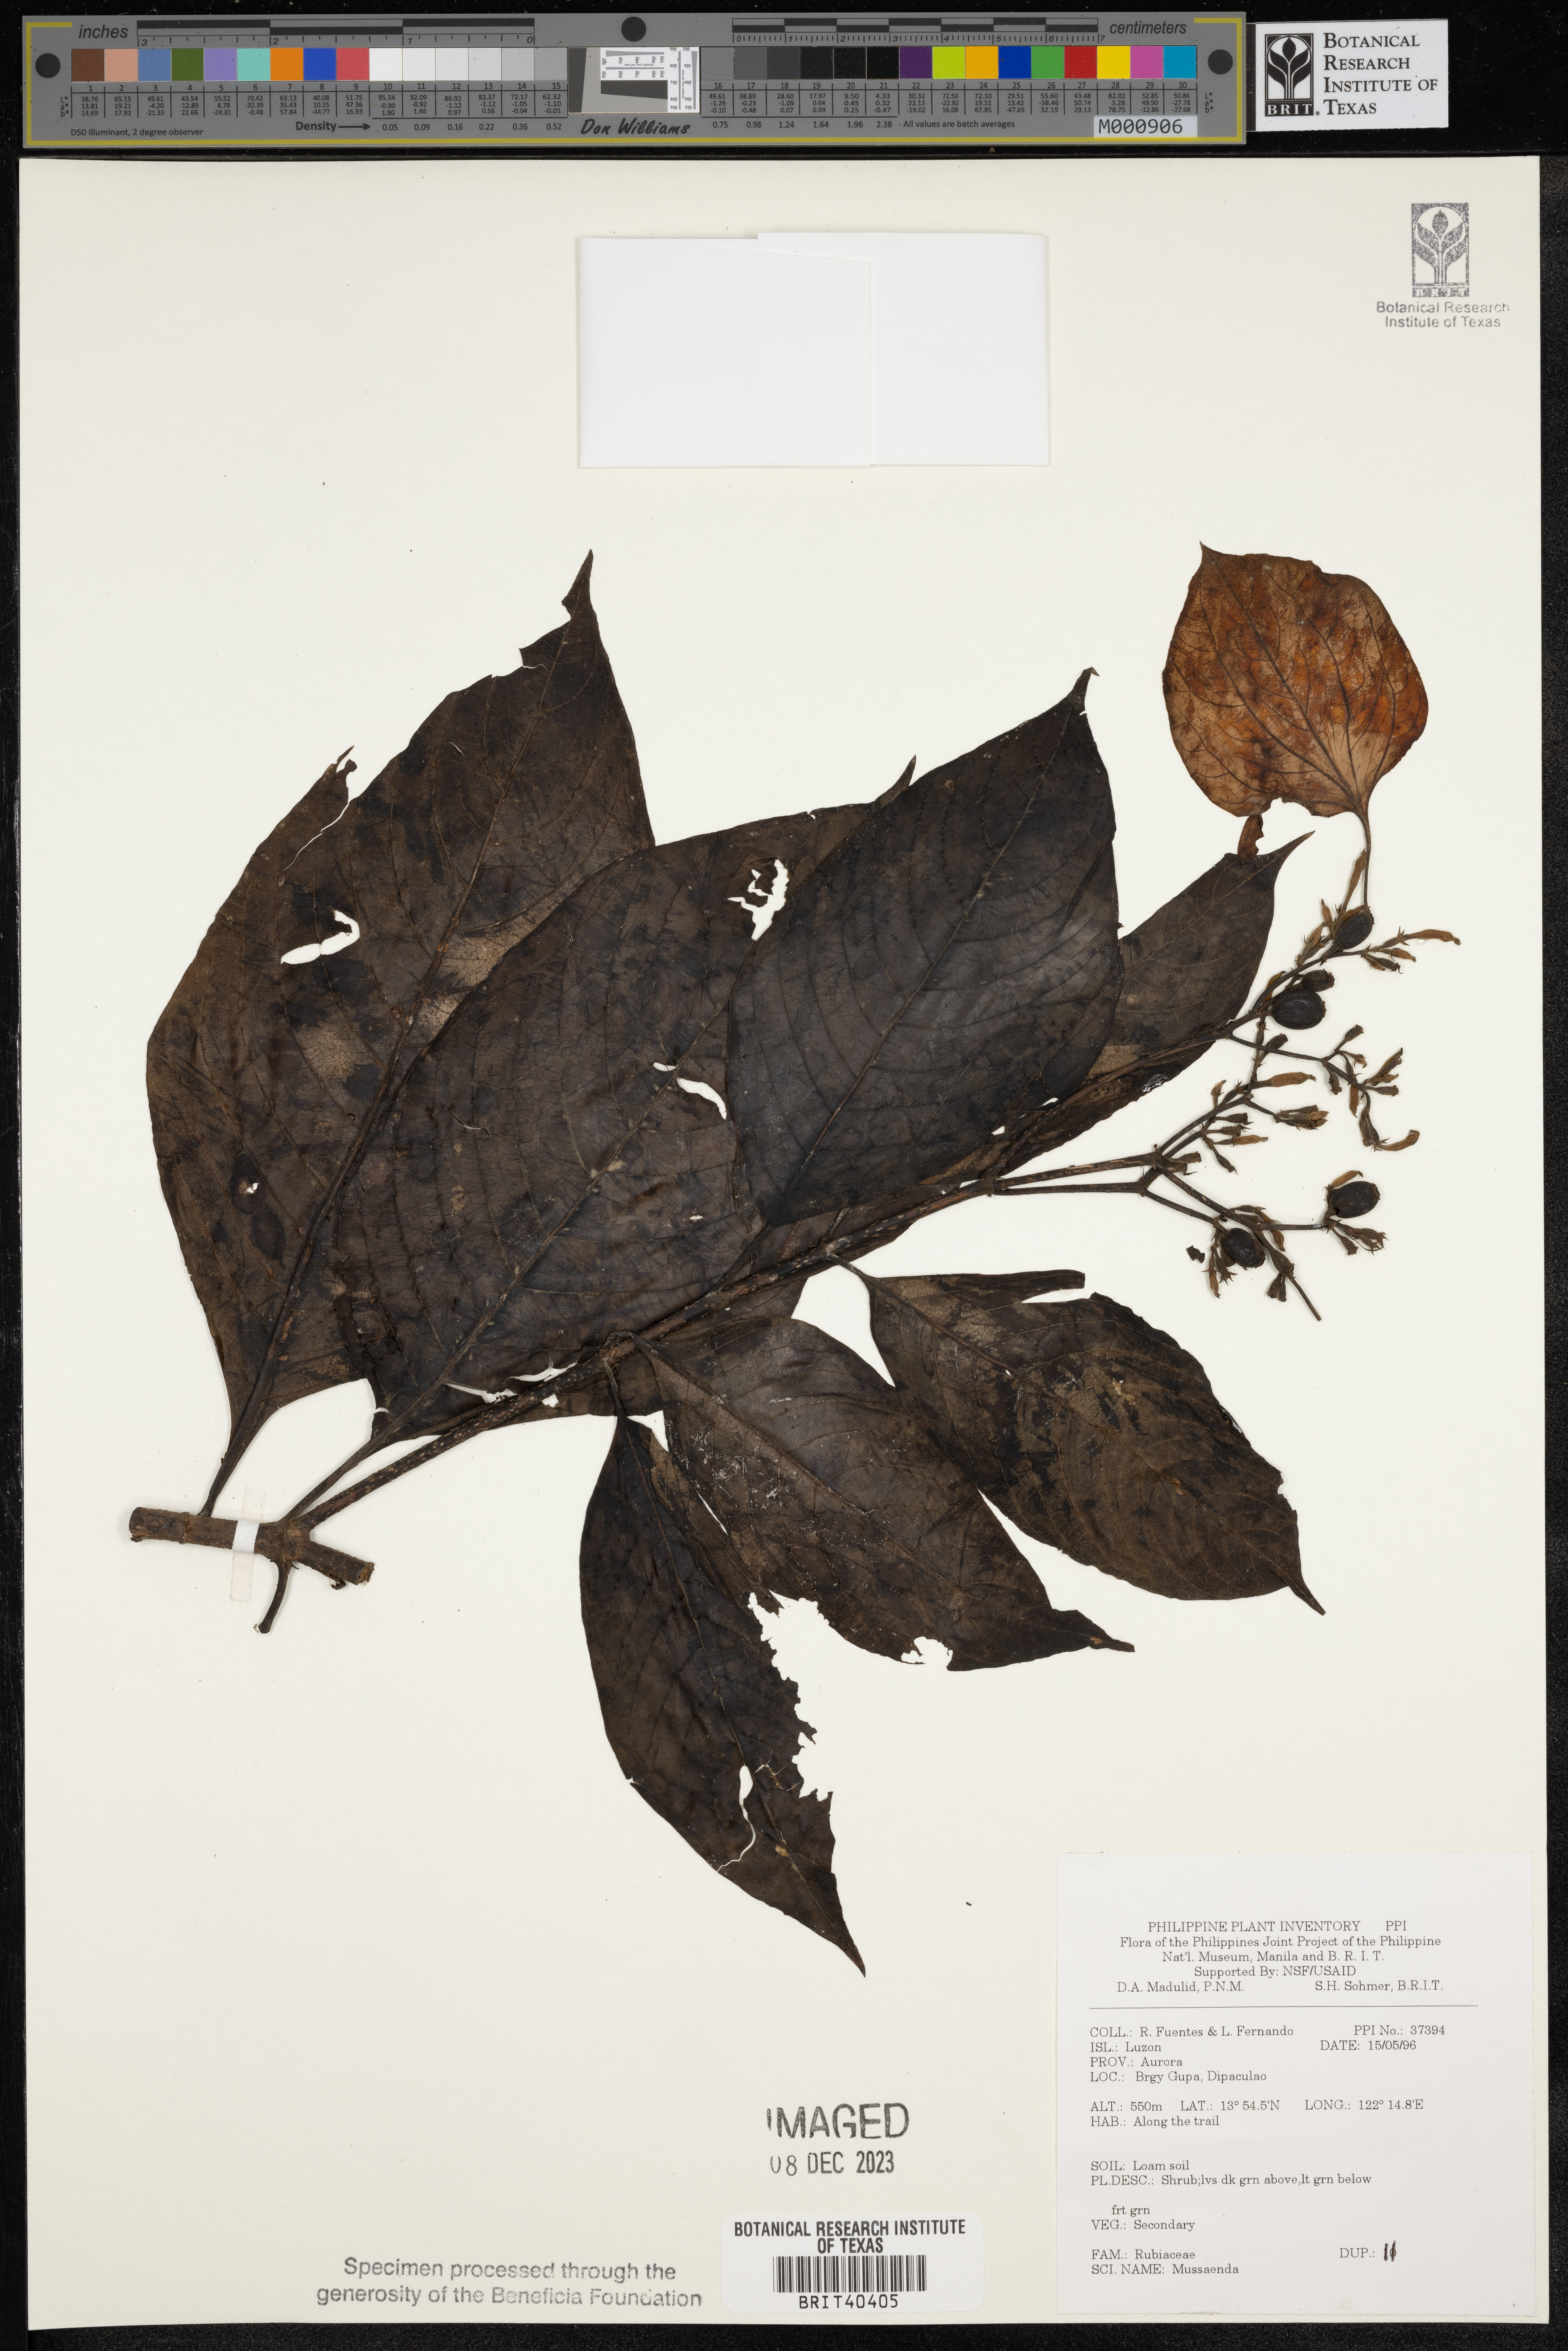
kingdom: Plantae
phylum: Tracheophyta
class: Magnoliopsida
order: Gentianales
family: Rubiaceae
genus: Mussaenda
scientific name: Mussaenda
